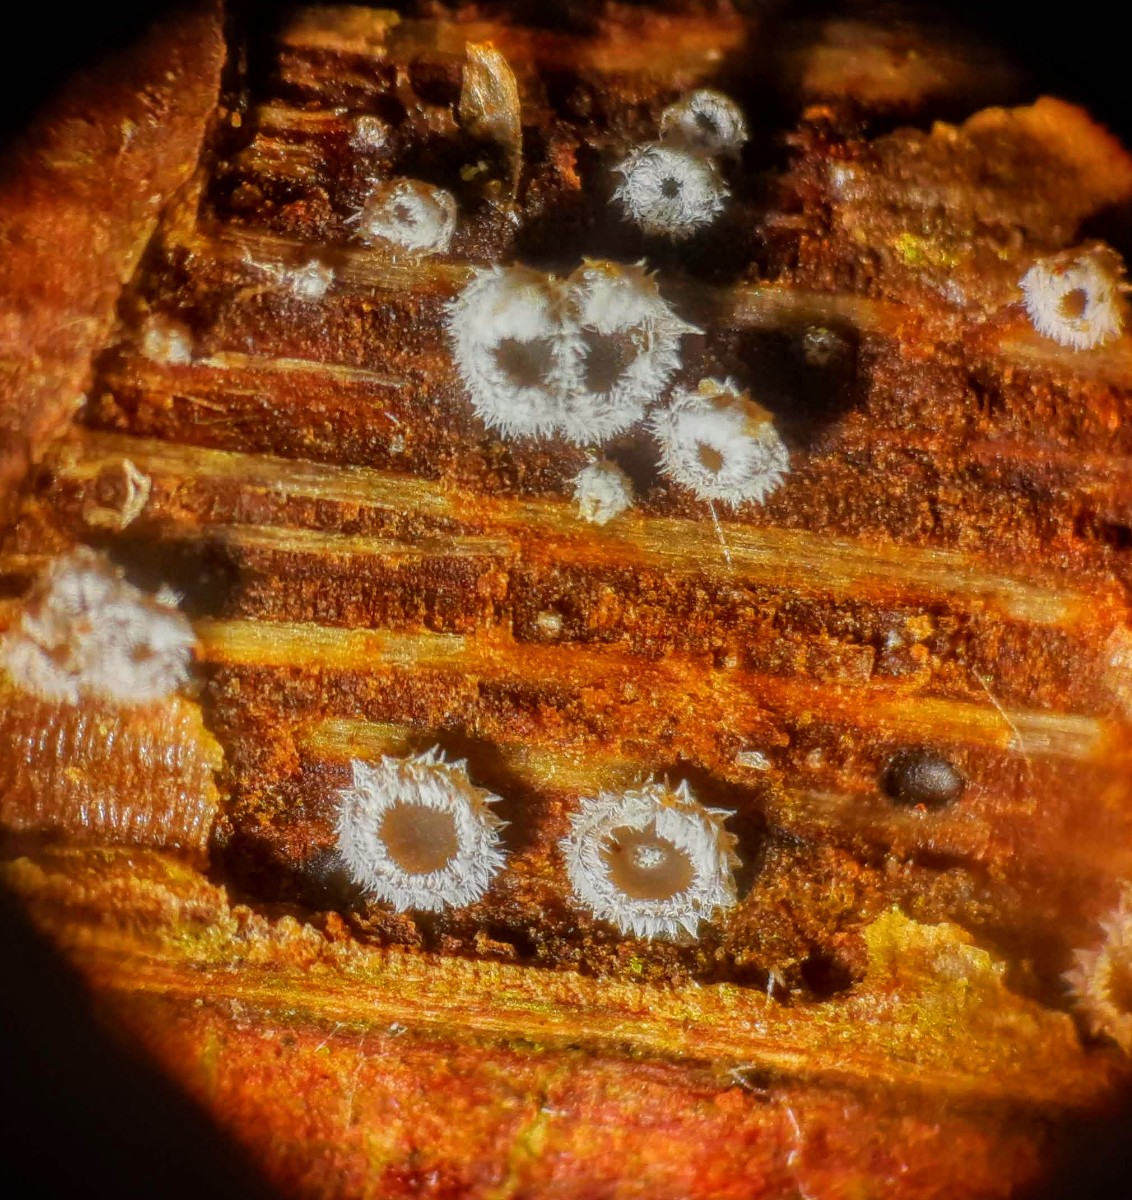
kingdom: Fungi
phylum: Basidiomycota
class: Agaricomycetes
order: Agaricales
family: Niaceae
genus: Lachnella
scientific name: Lachnella alboviolascens
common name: grå frynserede
